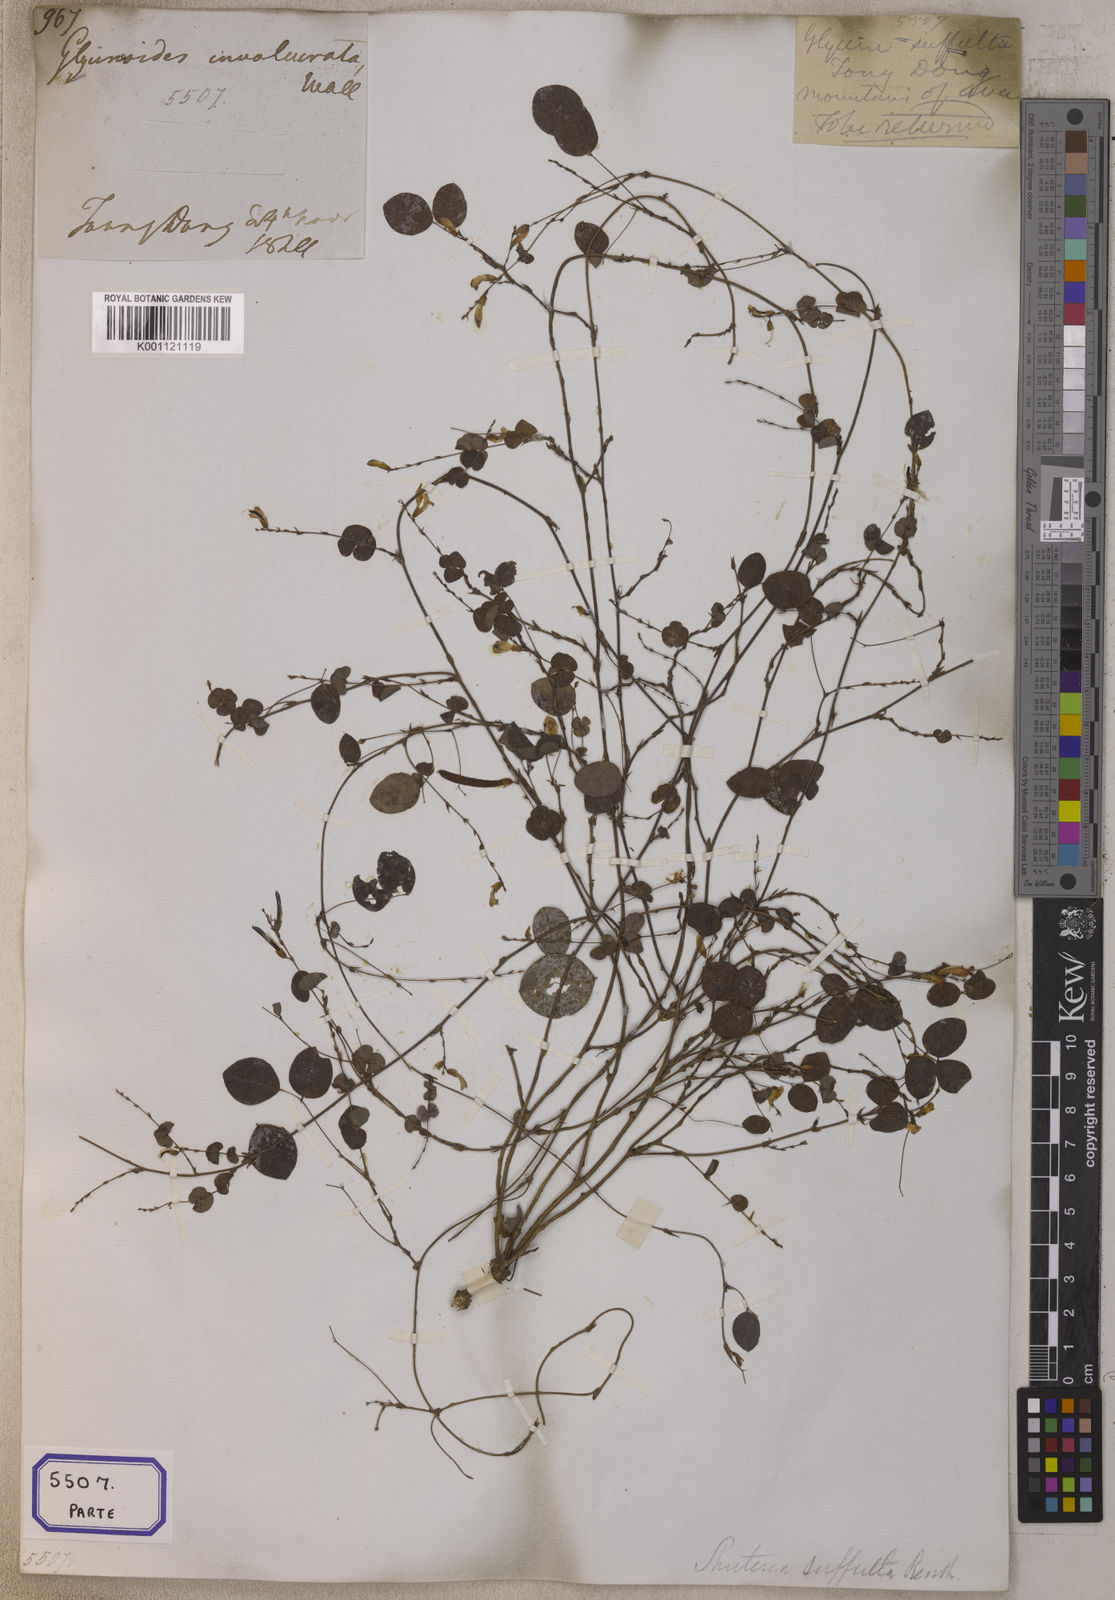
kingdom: Plantae
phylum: Tracheophyta
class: Magnoliopsida
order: Fabales
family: Fabaceae
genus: Shuteria
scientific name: Shuteria suffulta
